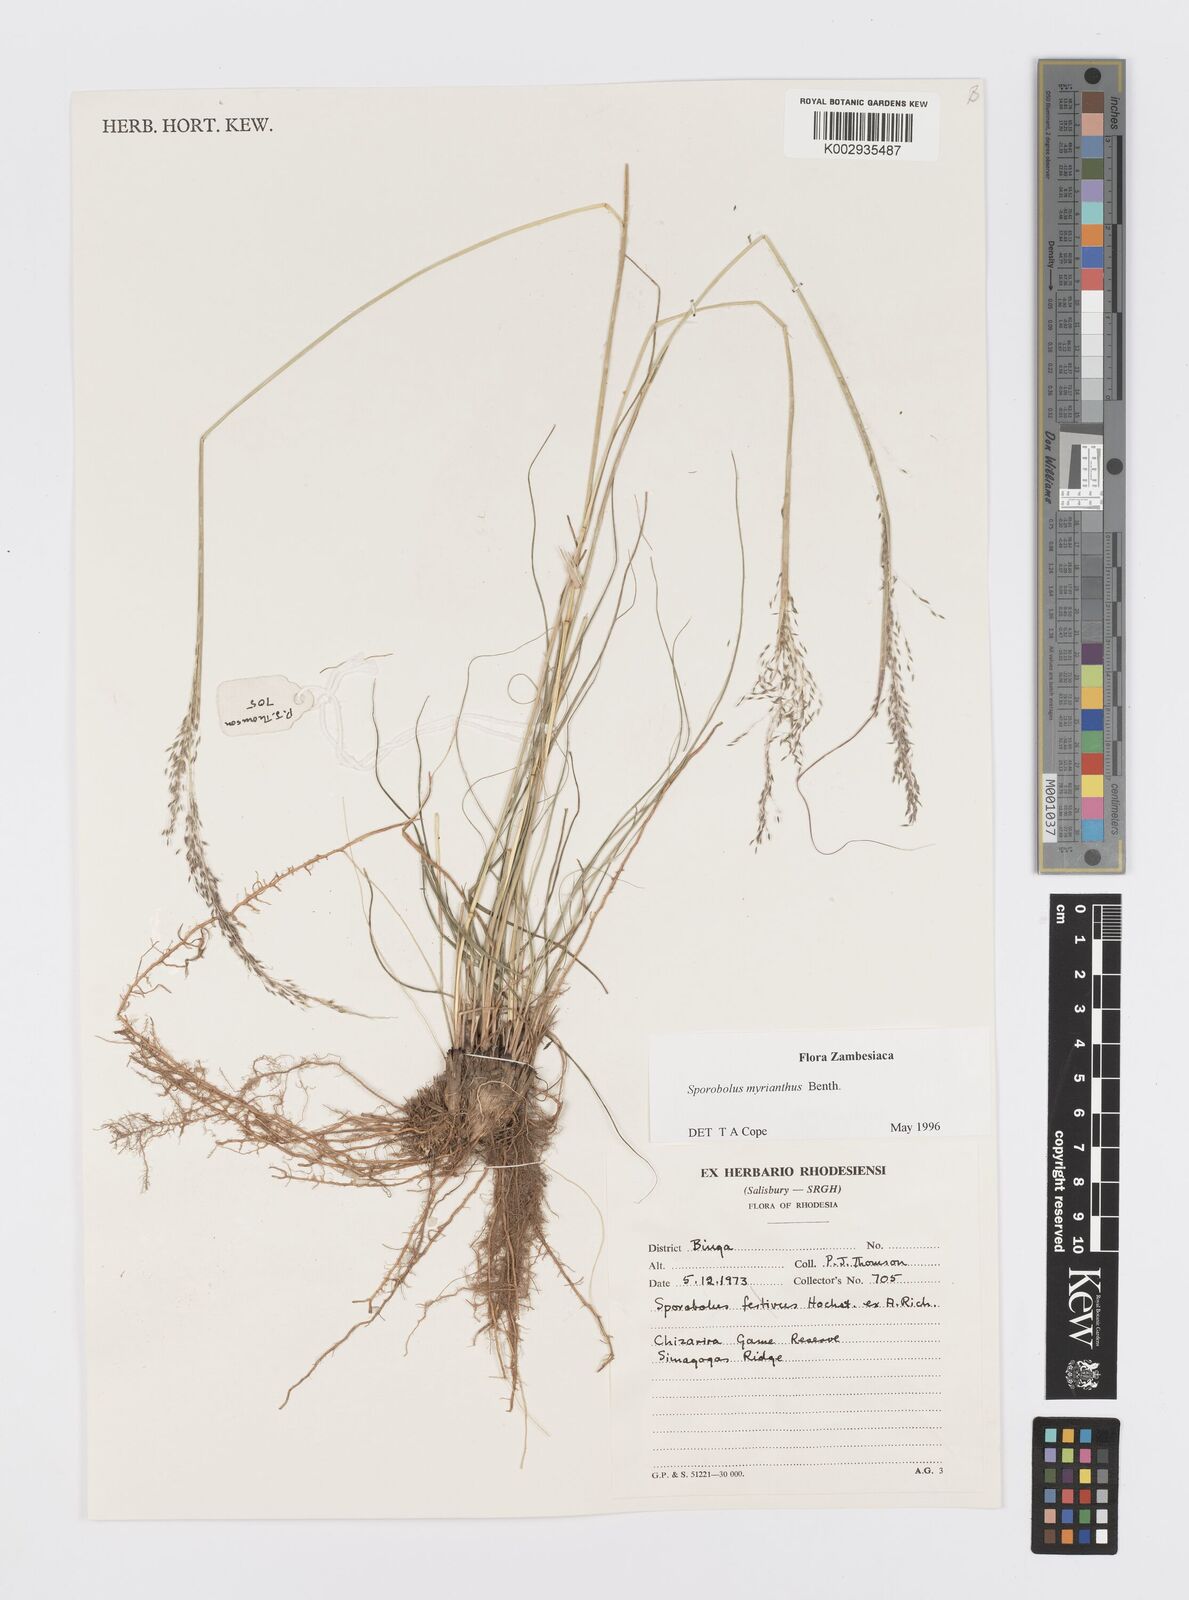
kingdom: Plantae
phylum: Tracheophyta
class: Liliopsida
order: Poales
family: Poaceae
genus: Sporobolus
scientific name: Sporobolus myrianthus
